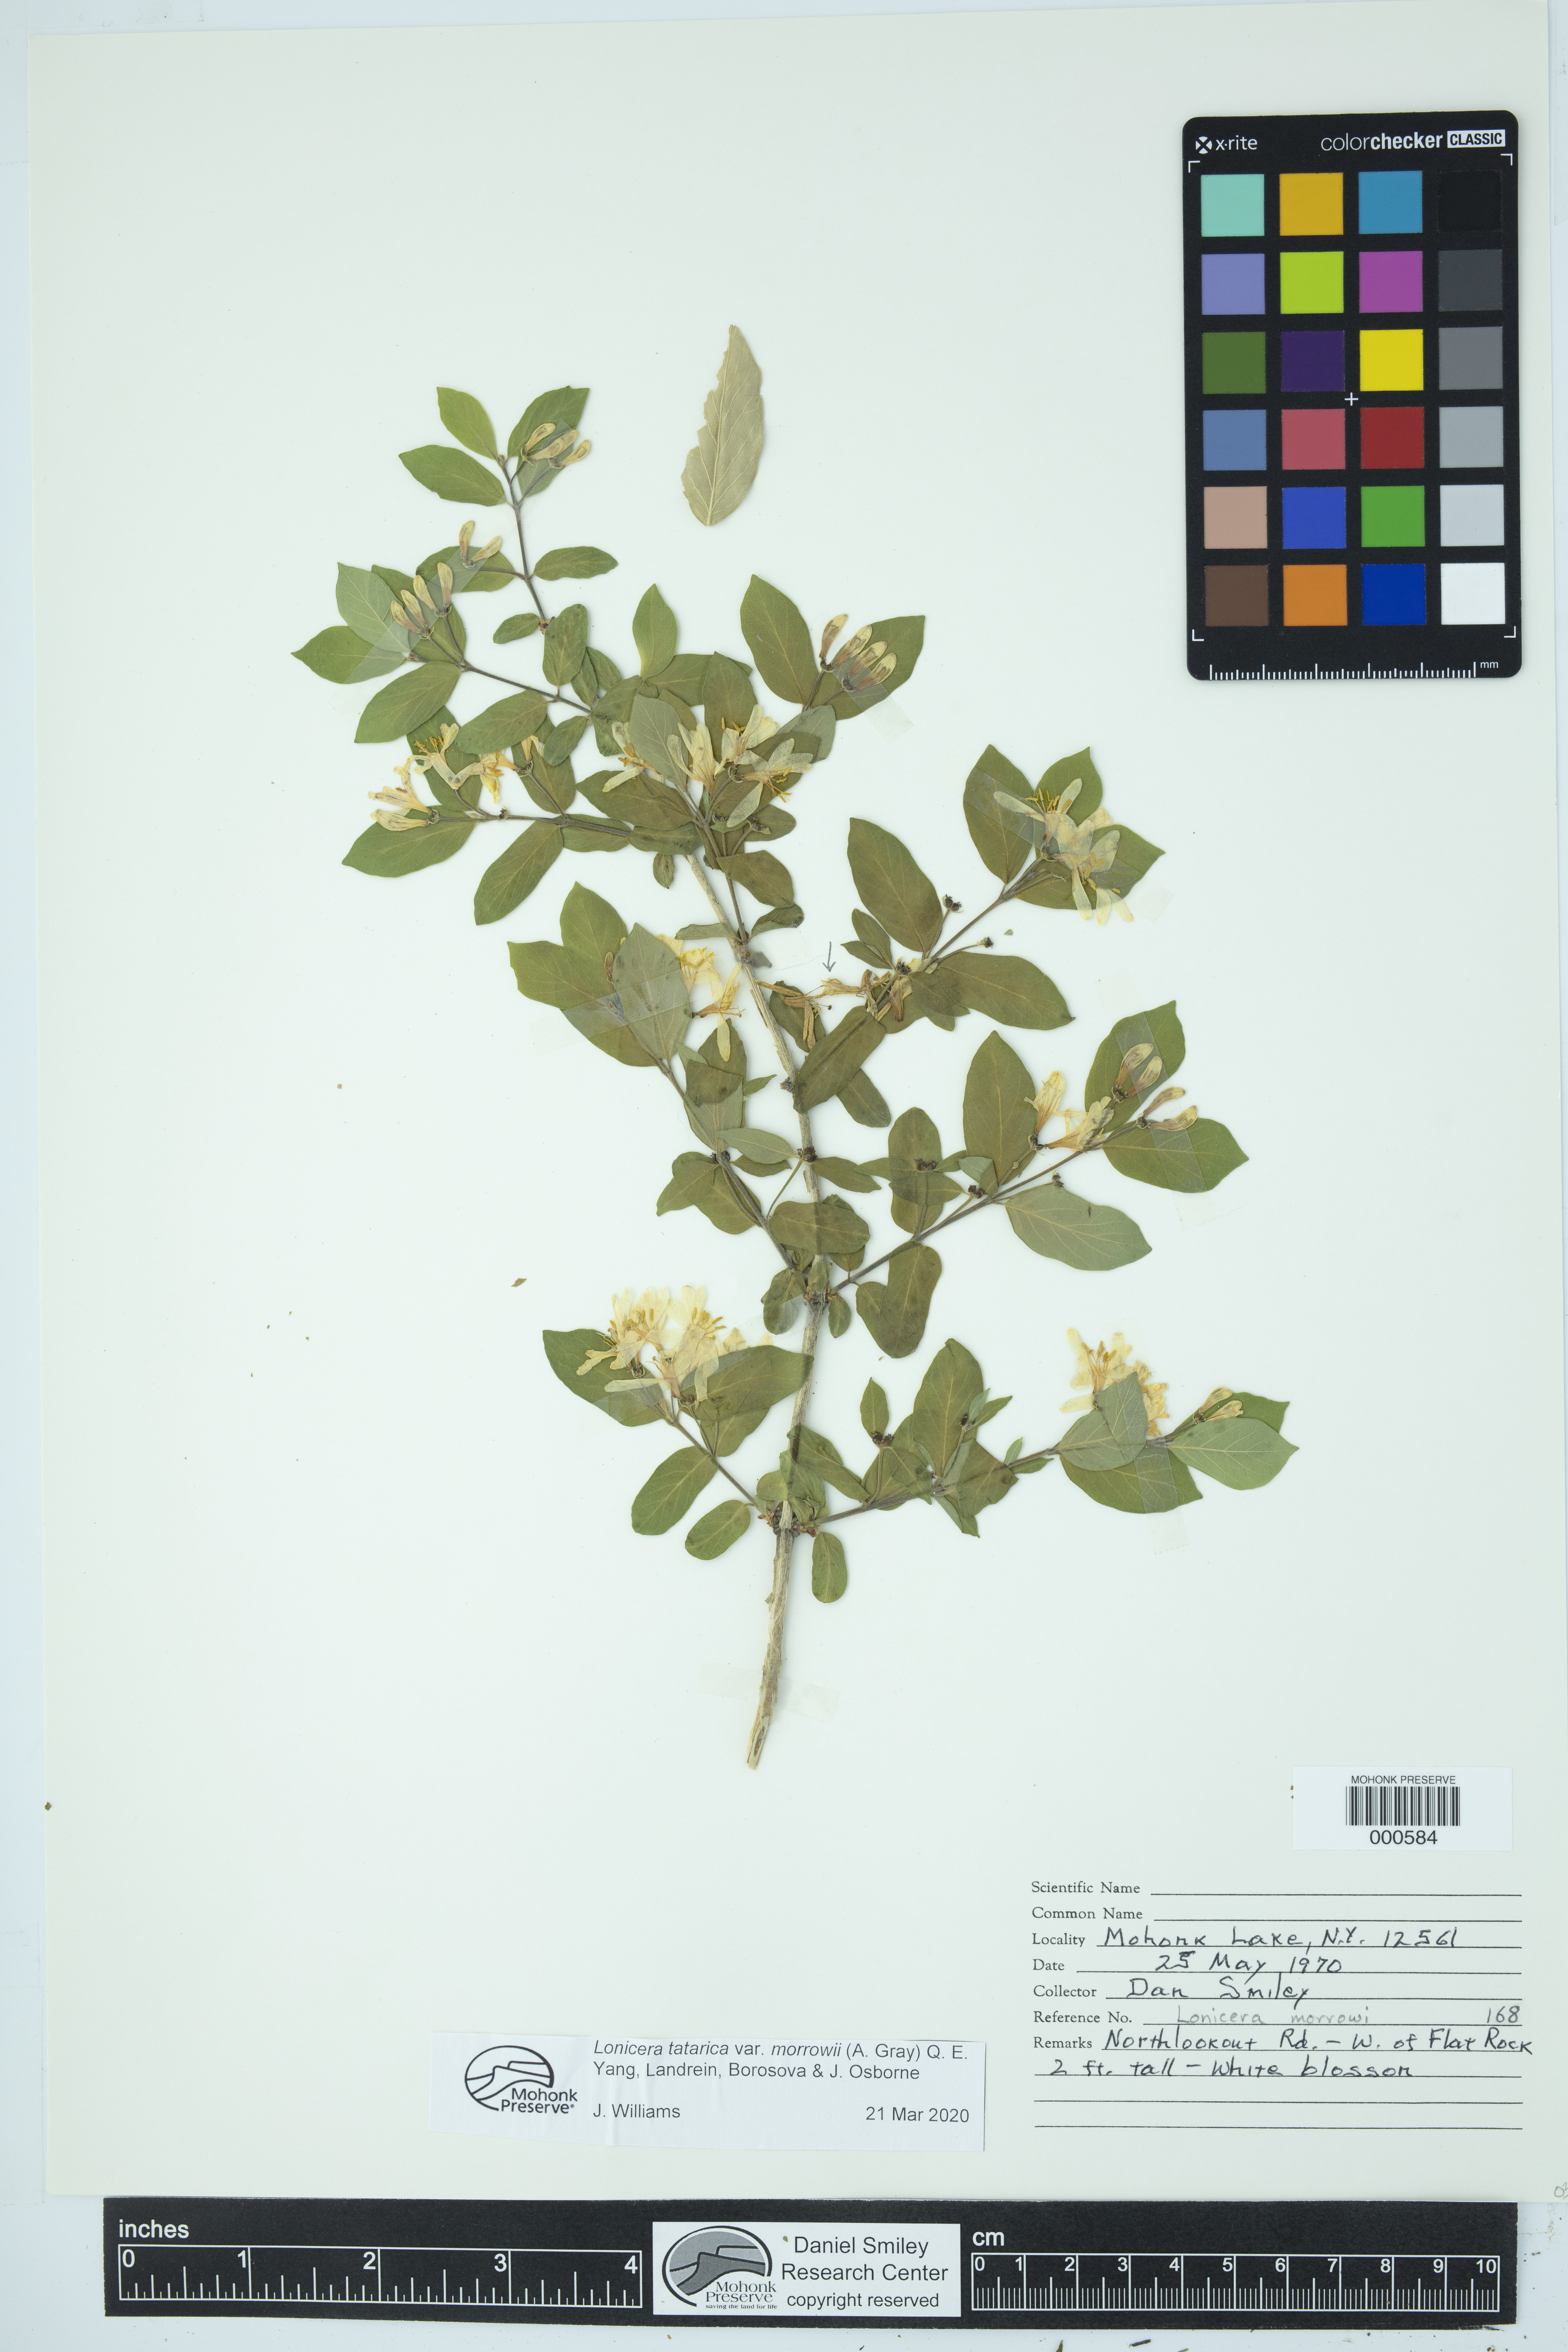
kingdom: Plantae
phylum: Tracheophyta
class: Magnoliopsida
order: Dipsacales
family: Caprifoliaceae
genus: Lonicera
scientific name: Lonicera morrowii
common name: Morrow's honeysuckle
